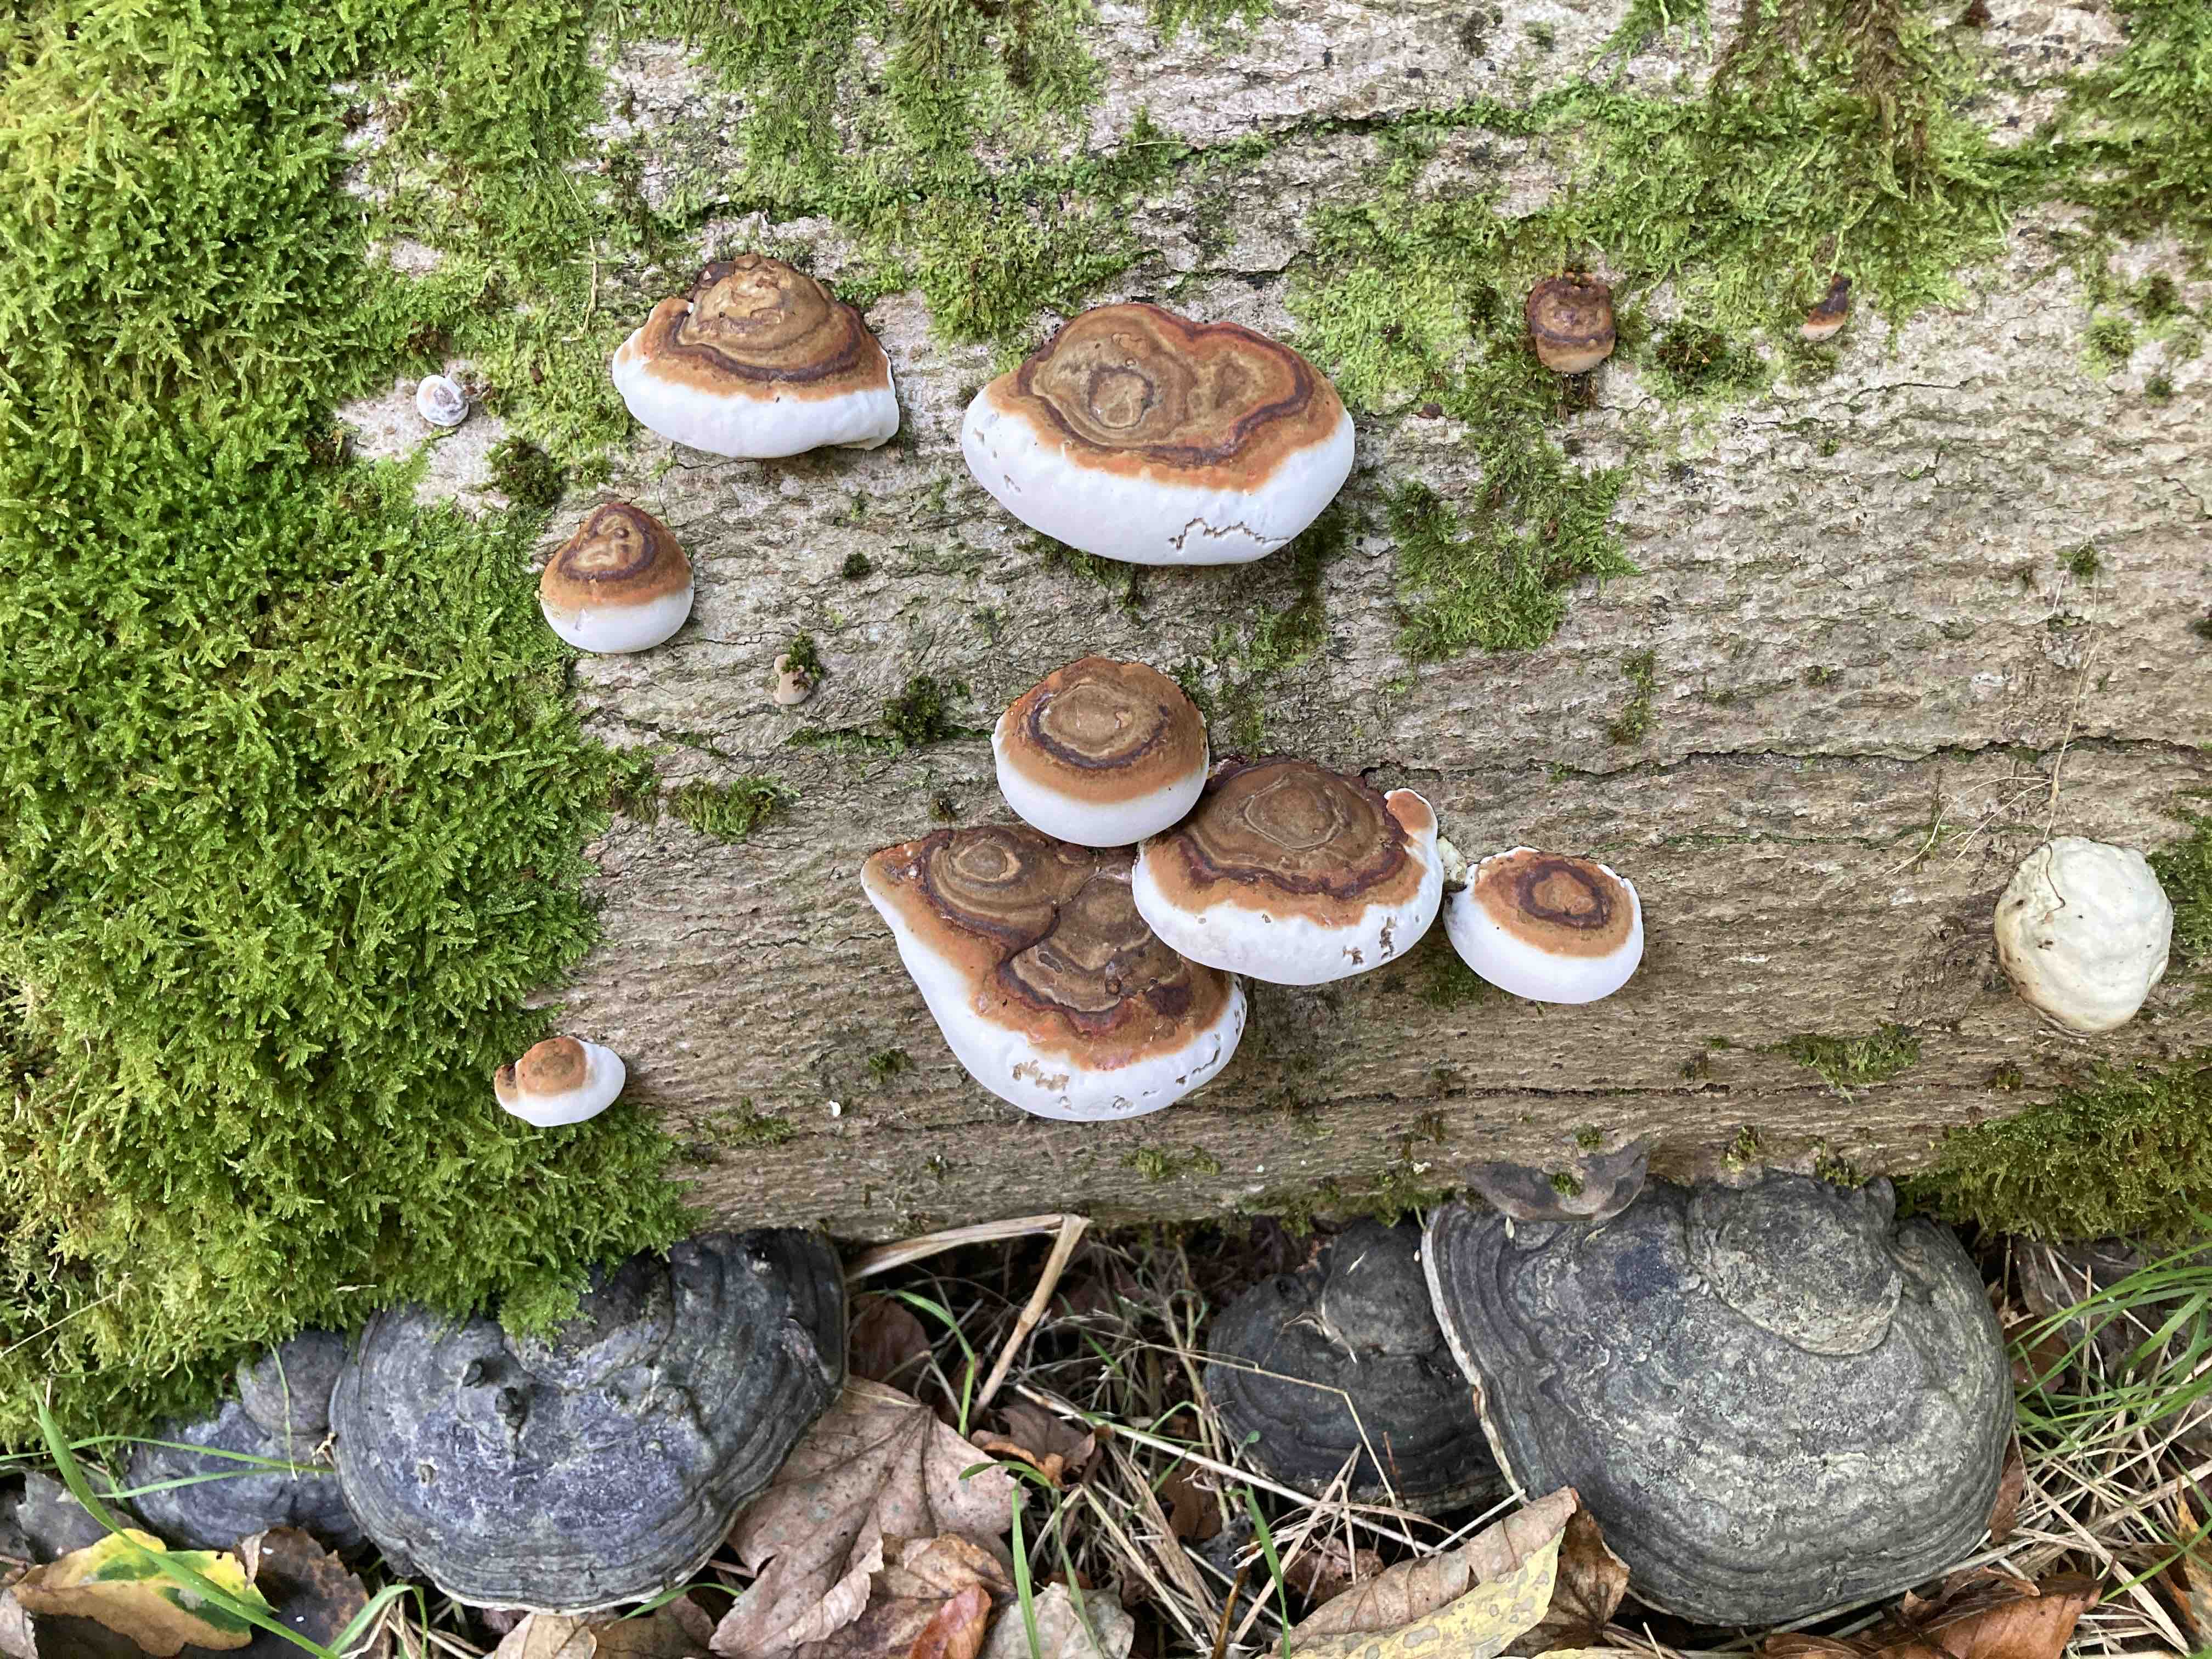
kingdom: Fungi
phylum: Basidiomycota
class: Agaricomycetes
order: Polyporales
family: Polyporaceae
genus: Fomes
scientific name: Fomes fomentarius
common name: tøndersvamp
